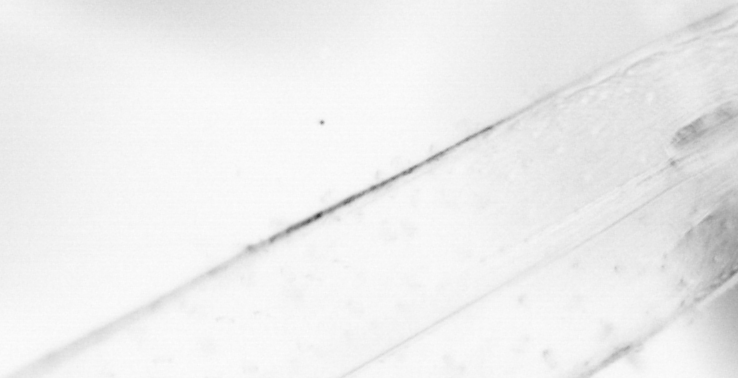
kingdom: Animalia
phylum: Chaetognatha
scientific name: Chaetognatha
